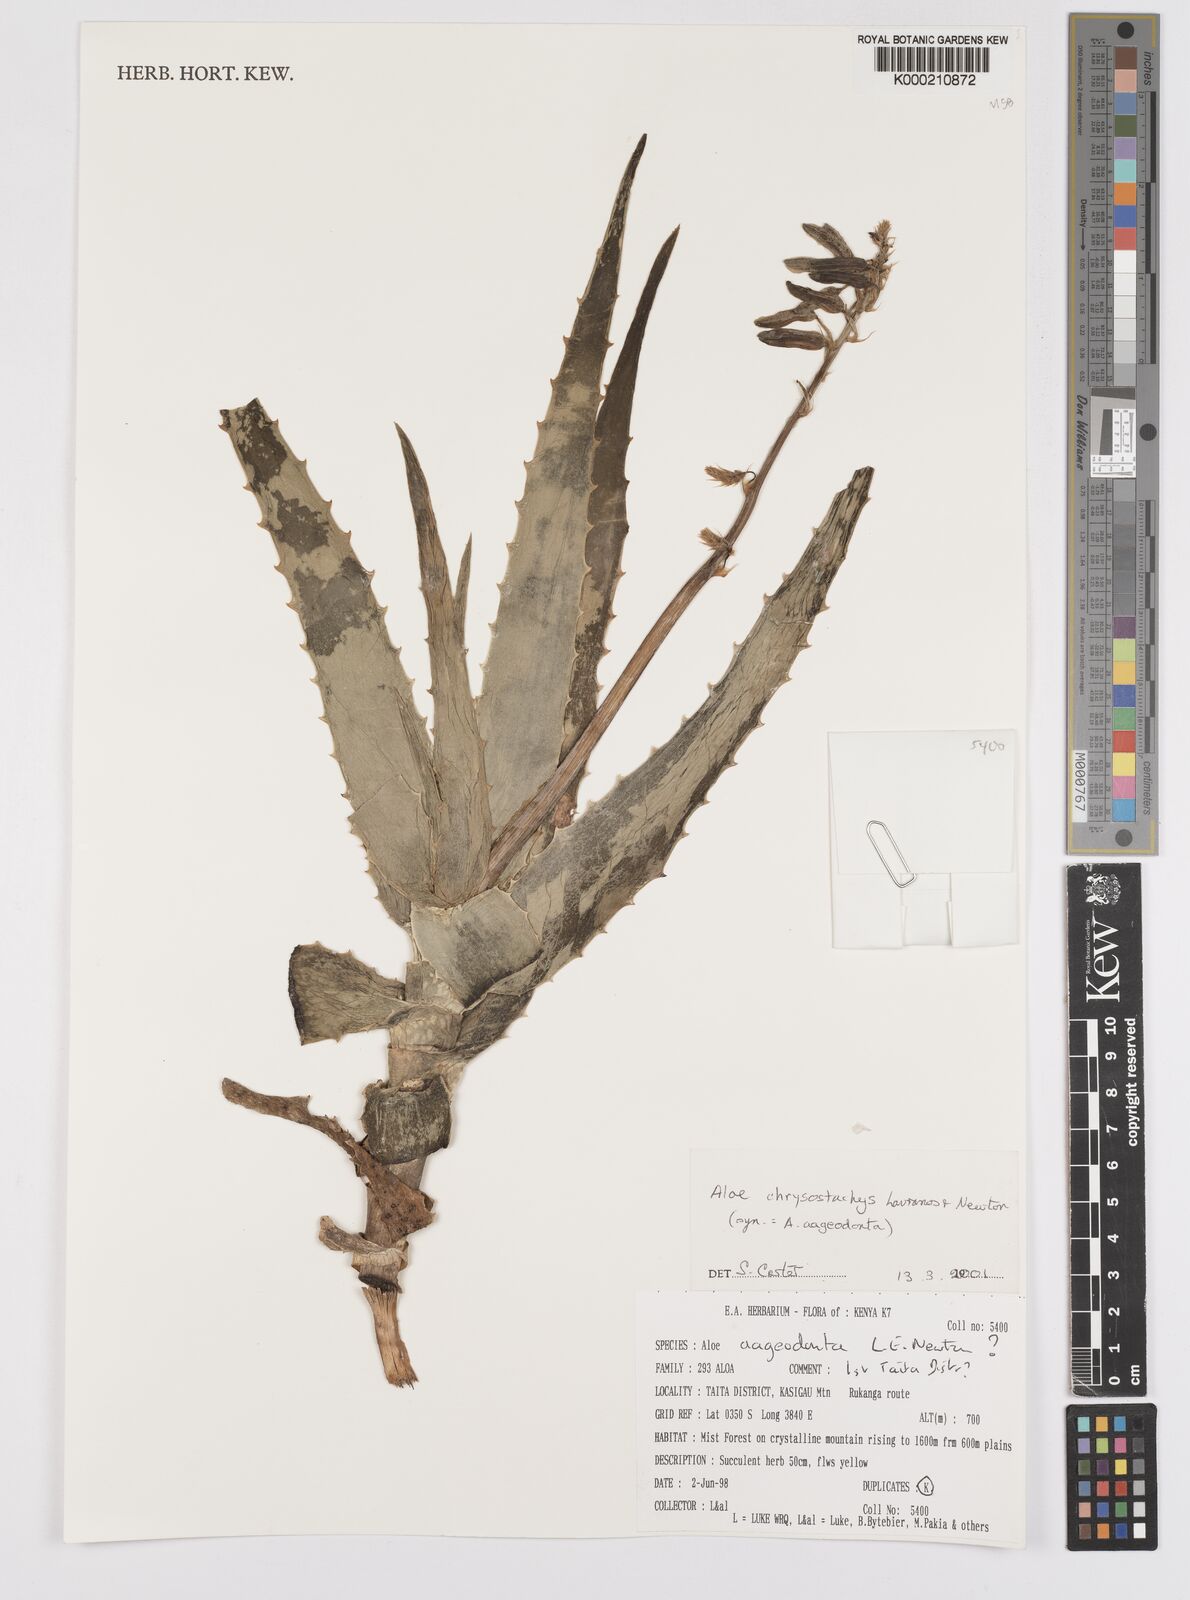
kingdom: Plantae
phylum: Tracheophyta
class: Liliopsida
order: Asparagales
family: Asphodelaceae
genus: Aloe
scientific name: Aloe chrysostachys
